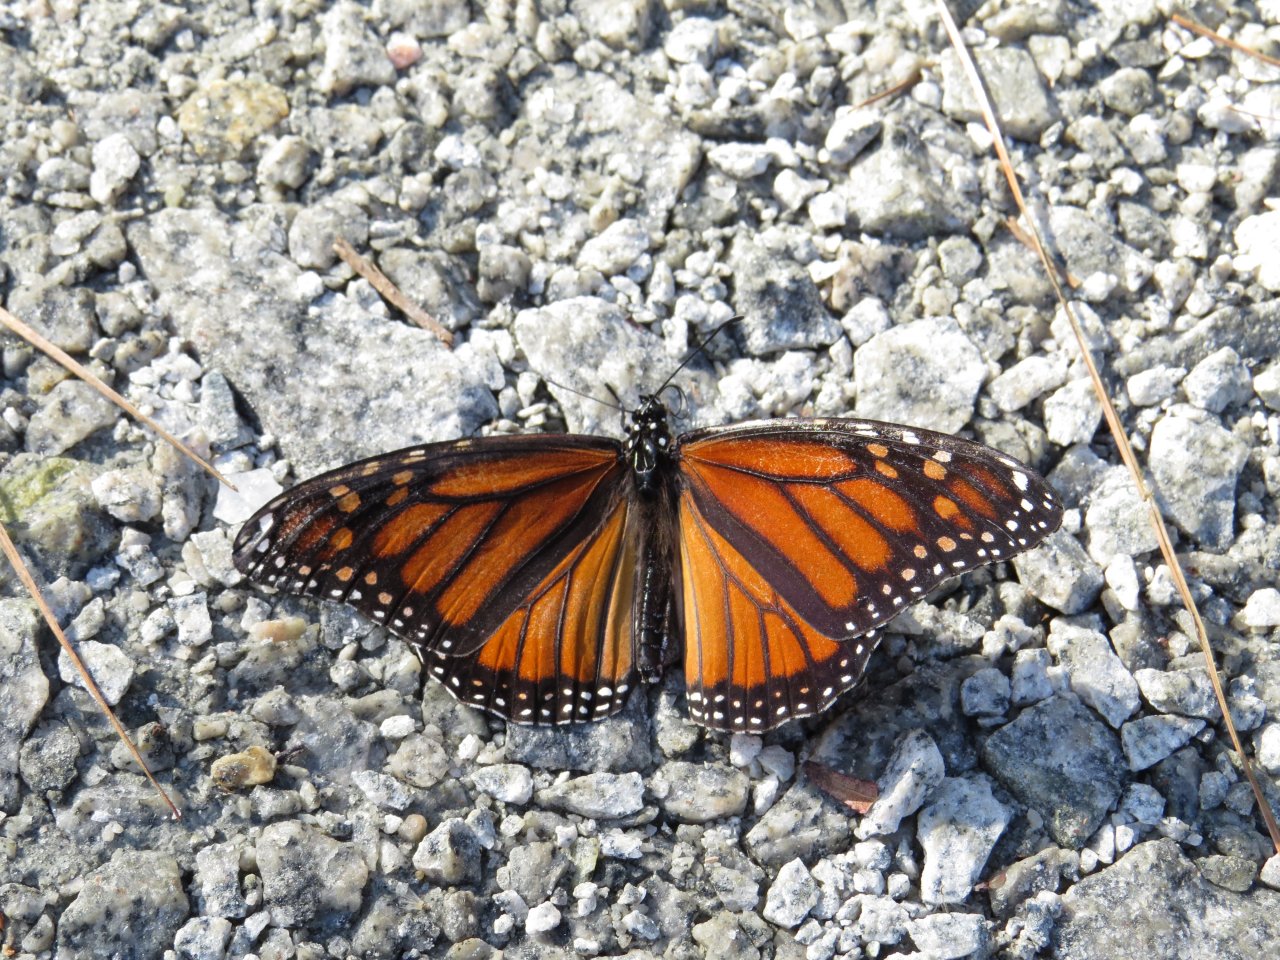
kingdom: Animalia
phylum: Arthropoda
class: Insecta
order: Lepidoptera
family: Nymphalidae
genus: Danaus
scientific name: Danaus plexippus
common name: Monarch
